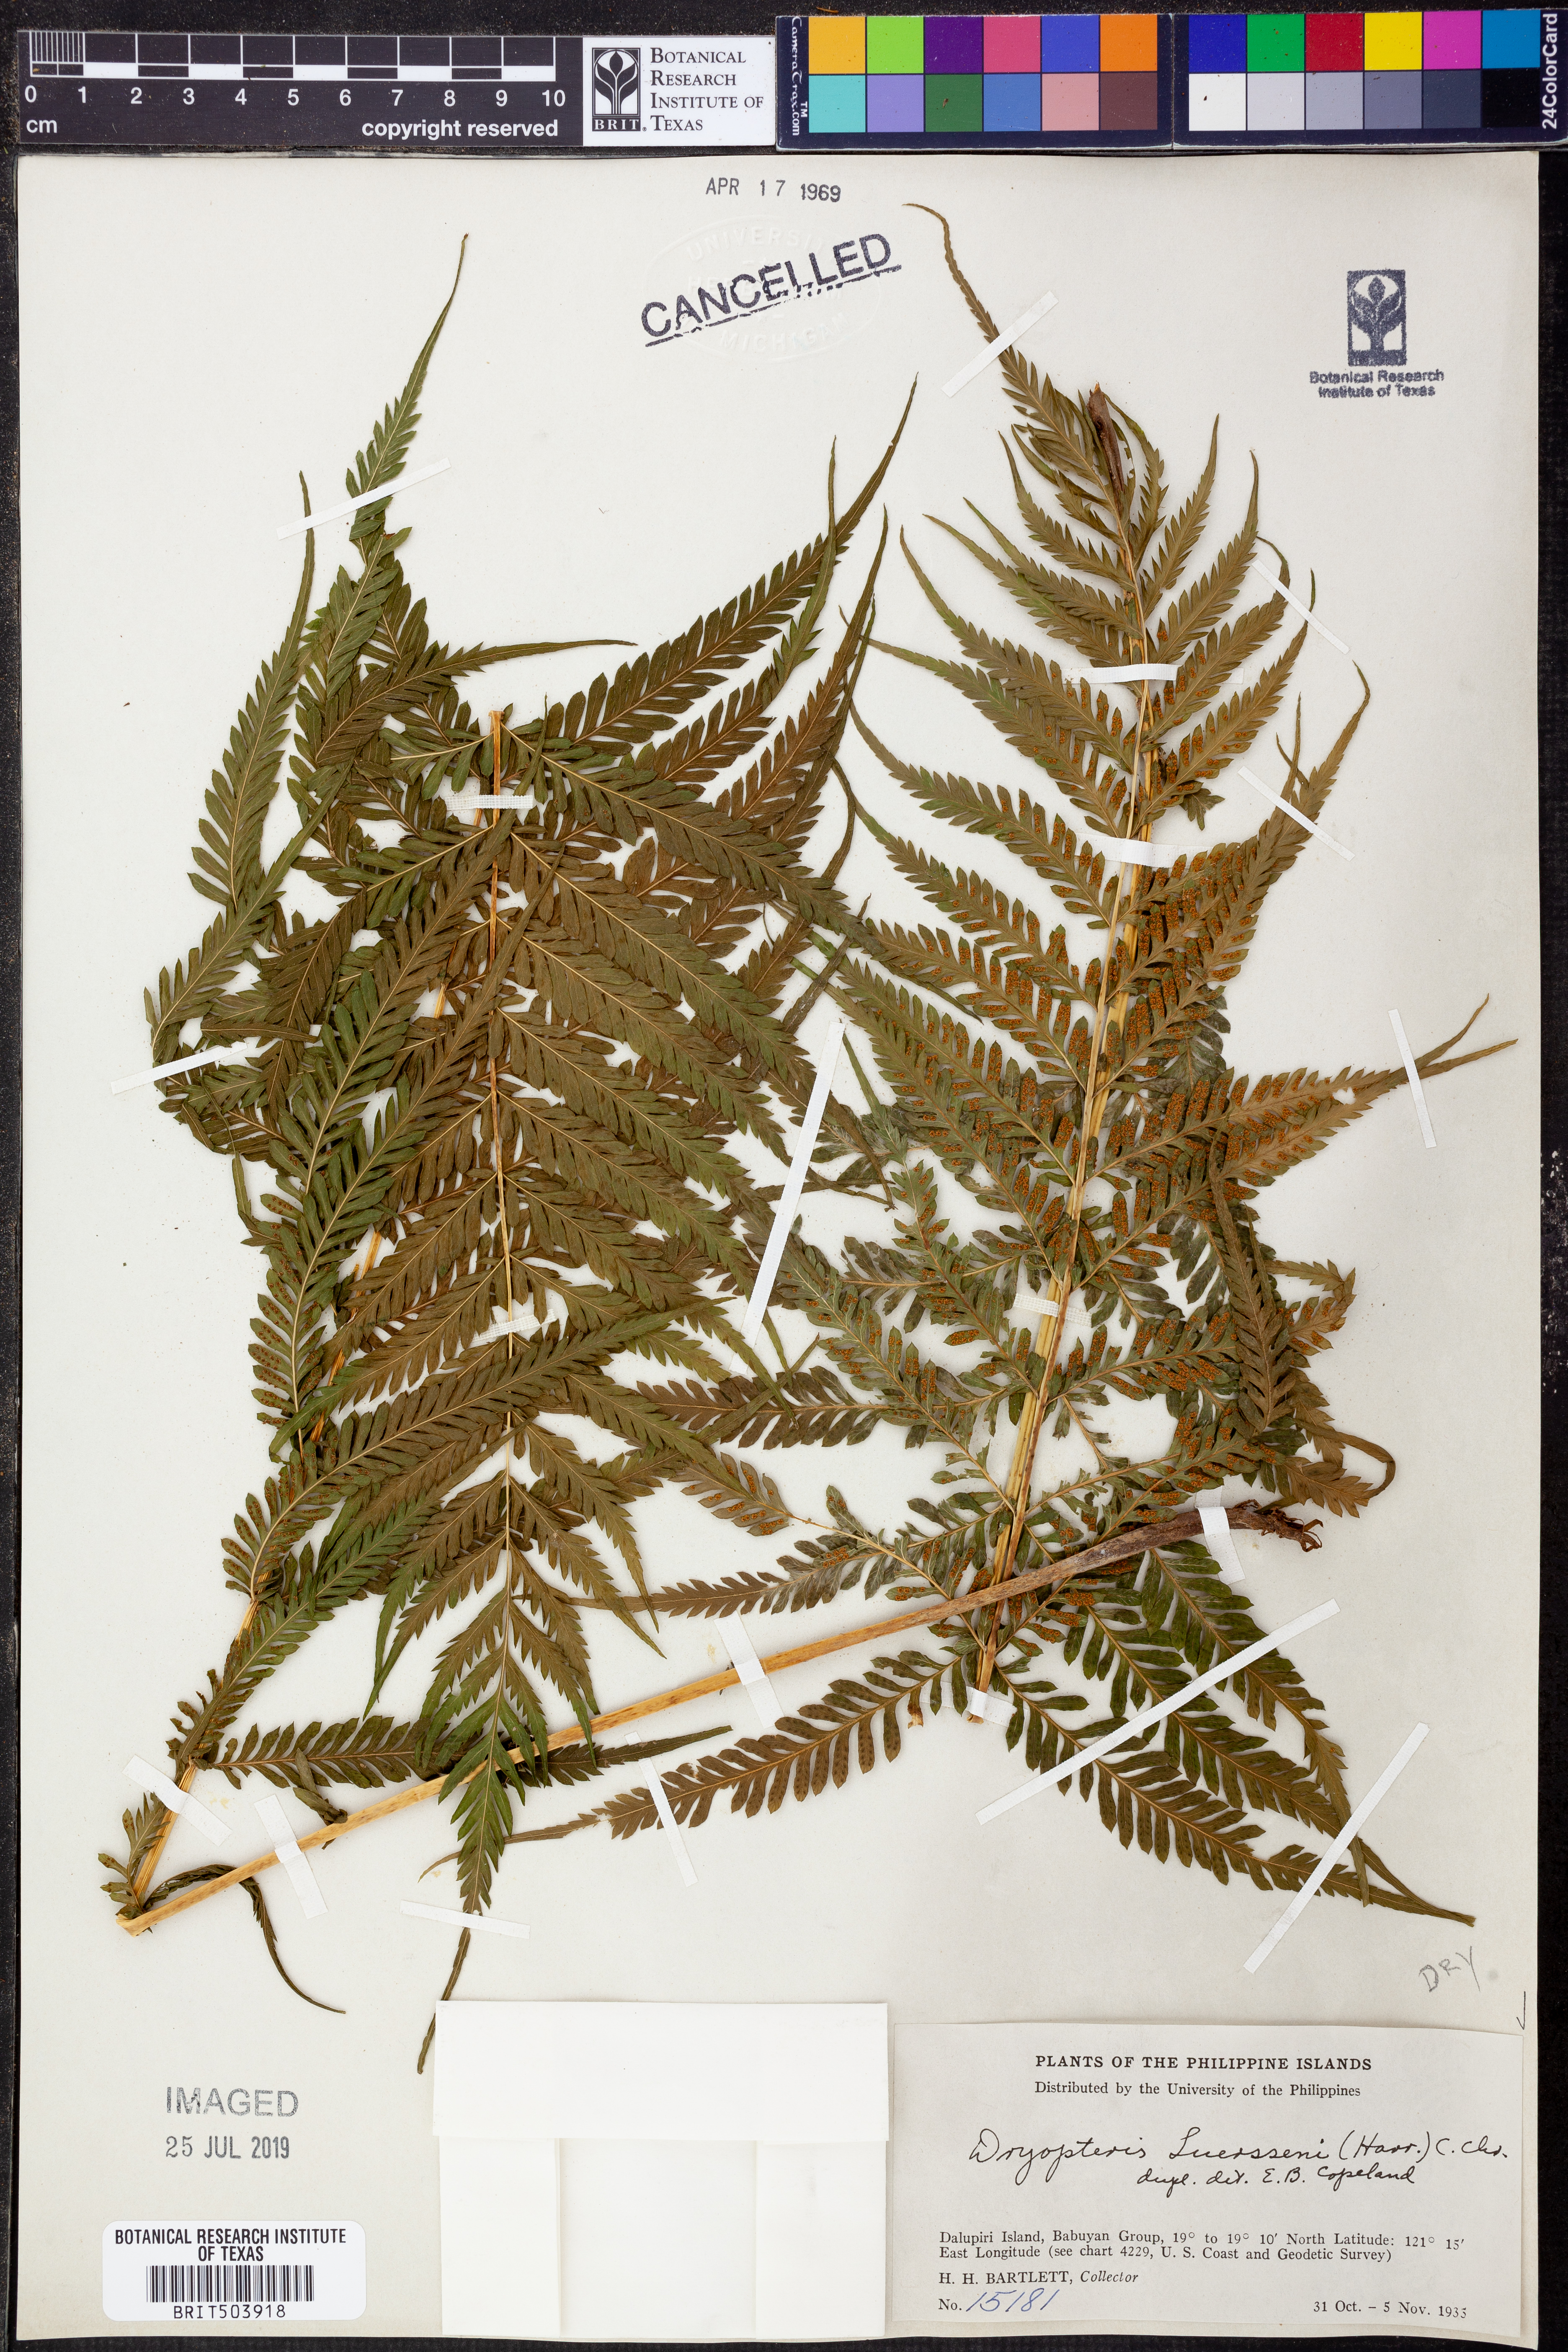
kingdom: Plantae
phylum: Tracheophyta
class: Polypodiopsida
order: Polypodiales
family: Thelypteridaceae
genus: Plesioneuron
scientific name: Plesioneuron ligulatum
